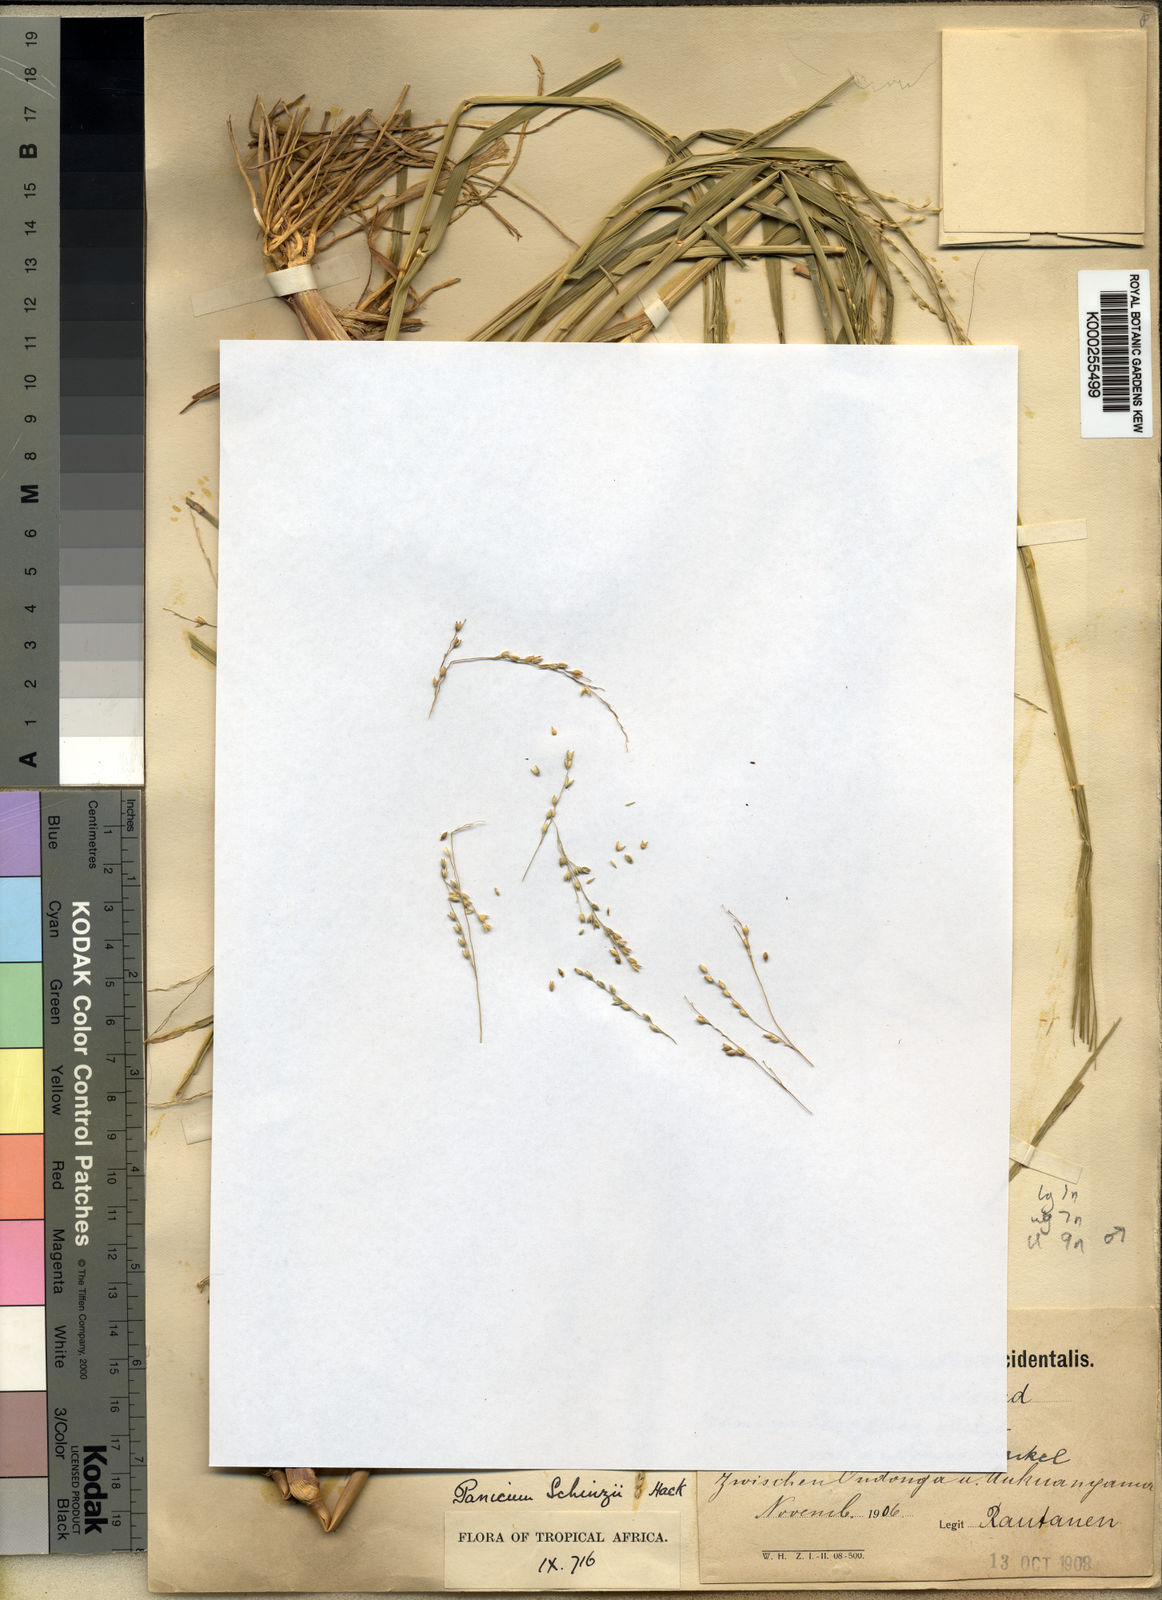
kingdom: Plantae
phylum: Tracheophyta
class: Liliopsida
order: Poales
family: Poaceae
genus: Panicum
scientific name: Panicum
